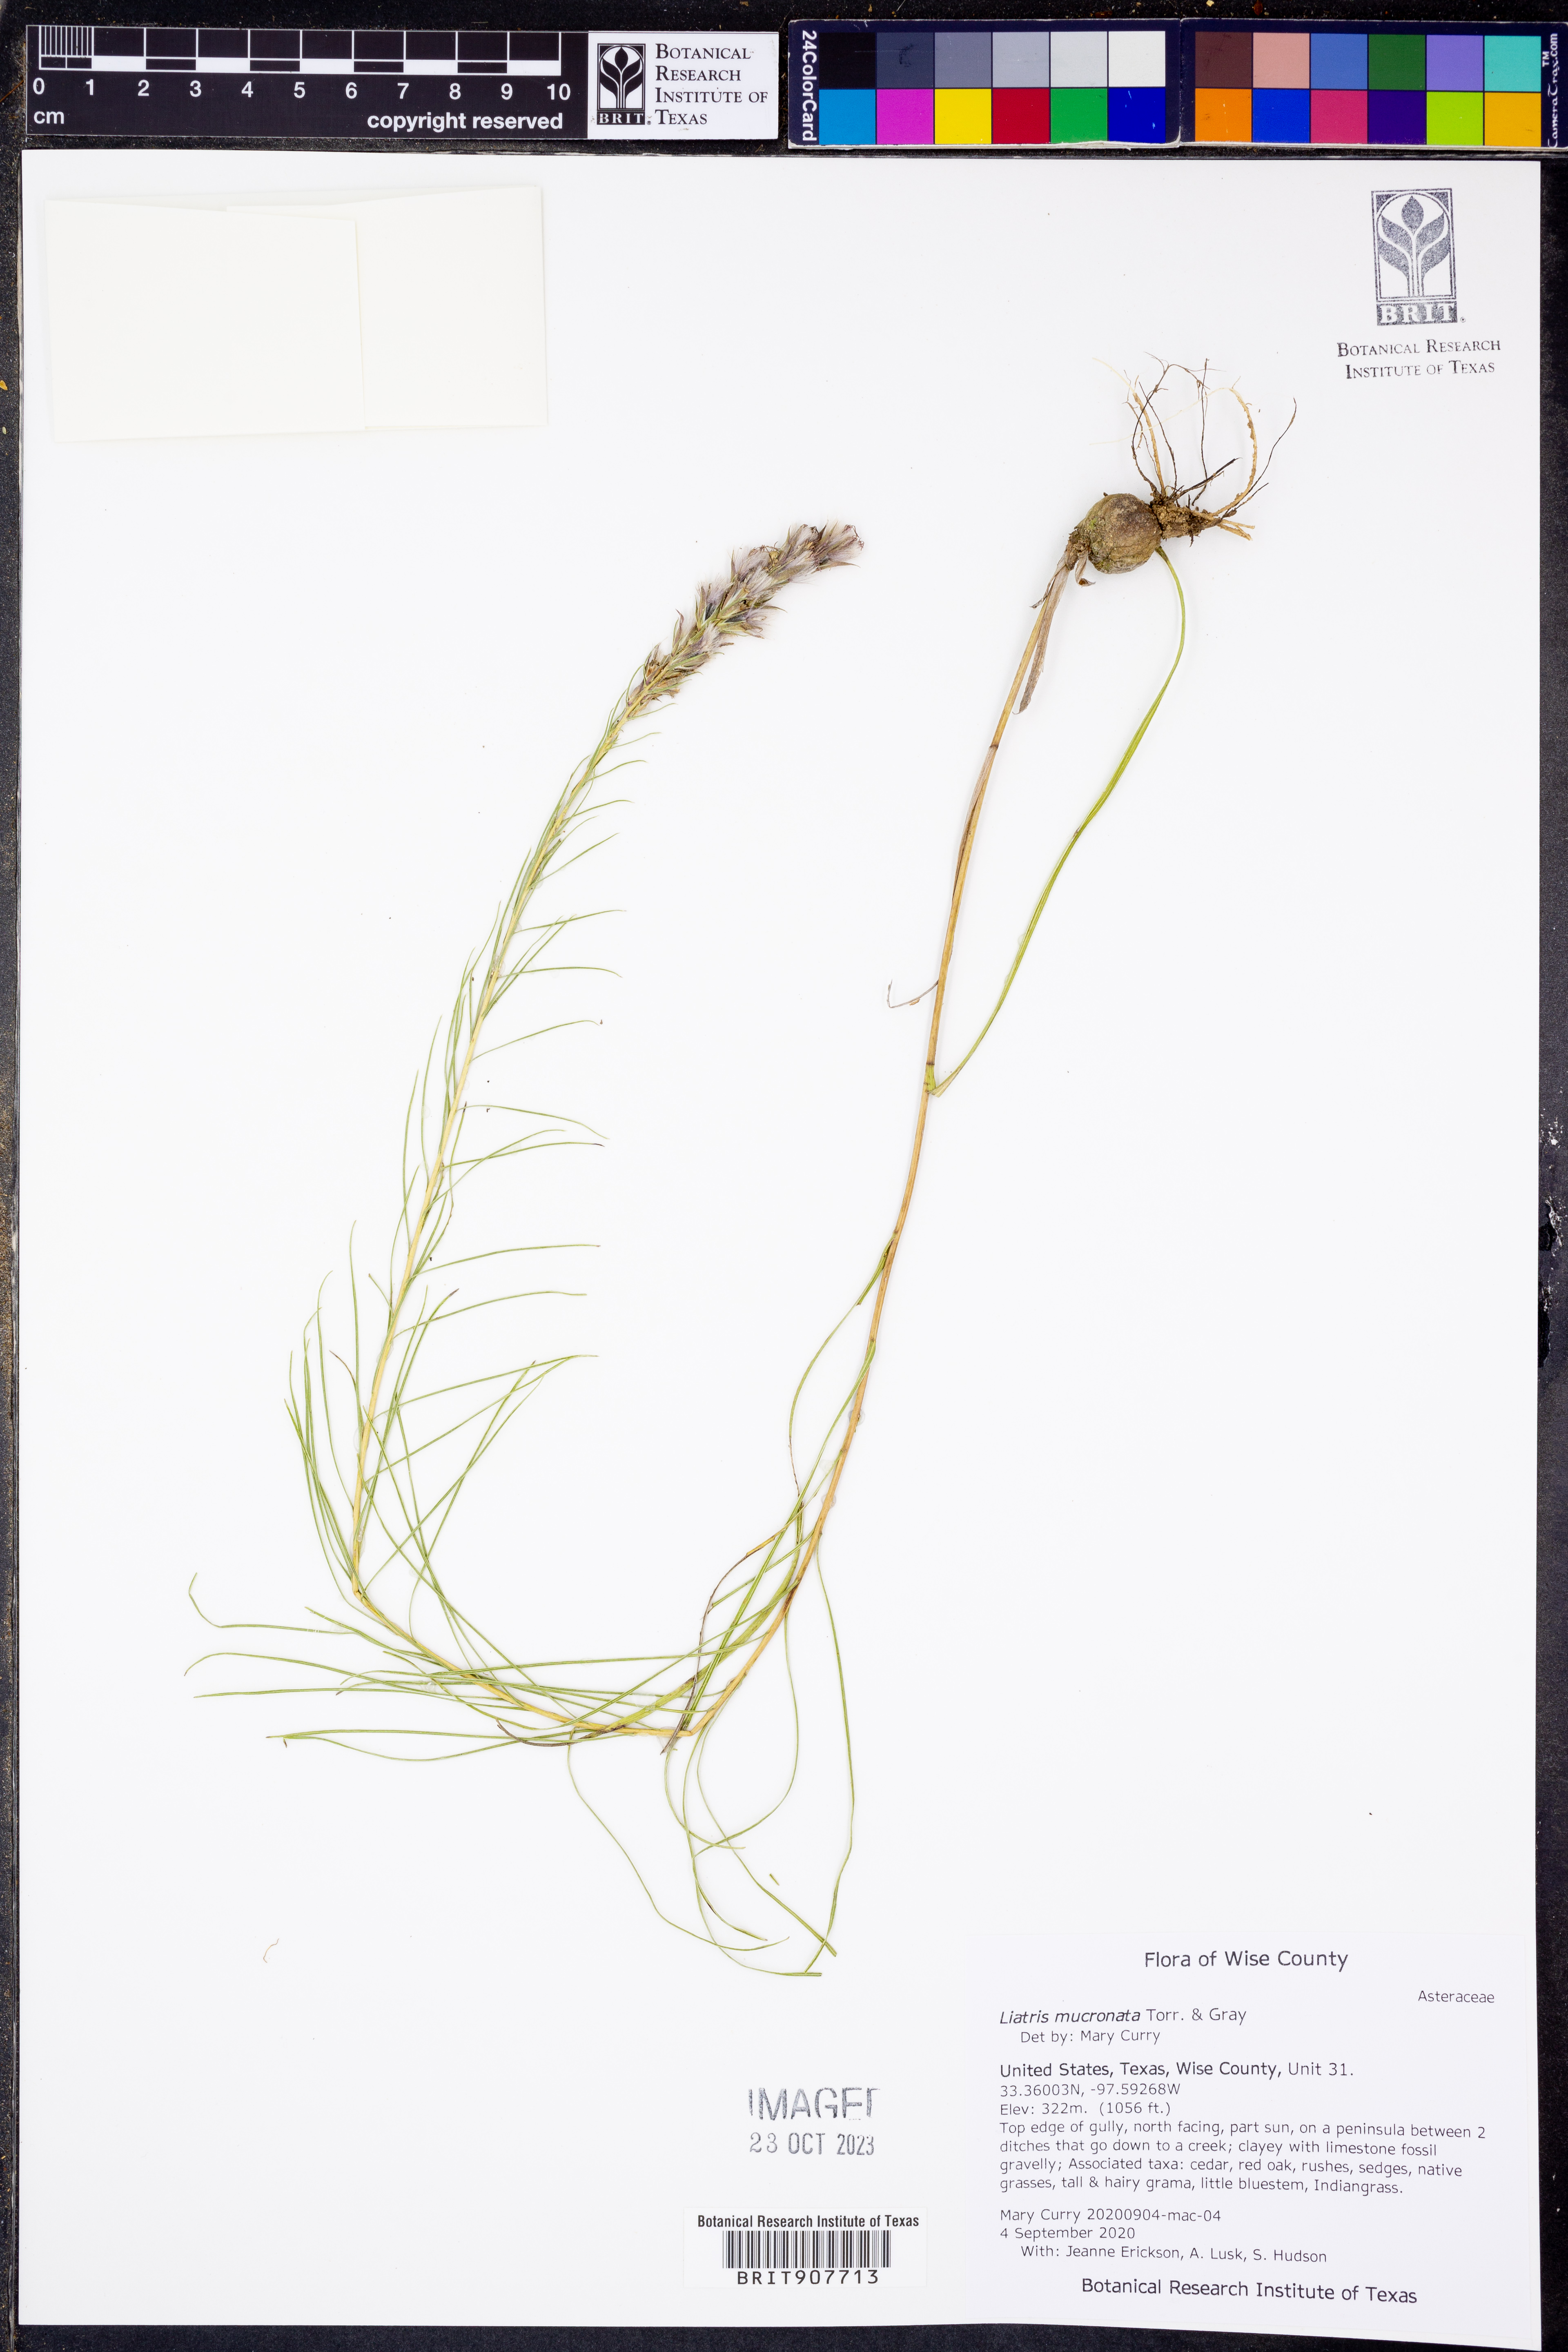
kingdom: Plantae
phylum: Tracheophyta
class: Magnoliopsida
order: Asterales
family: Asteraceae
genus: Liatris
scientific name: Liatris mucronata
